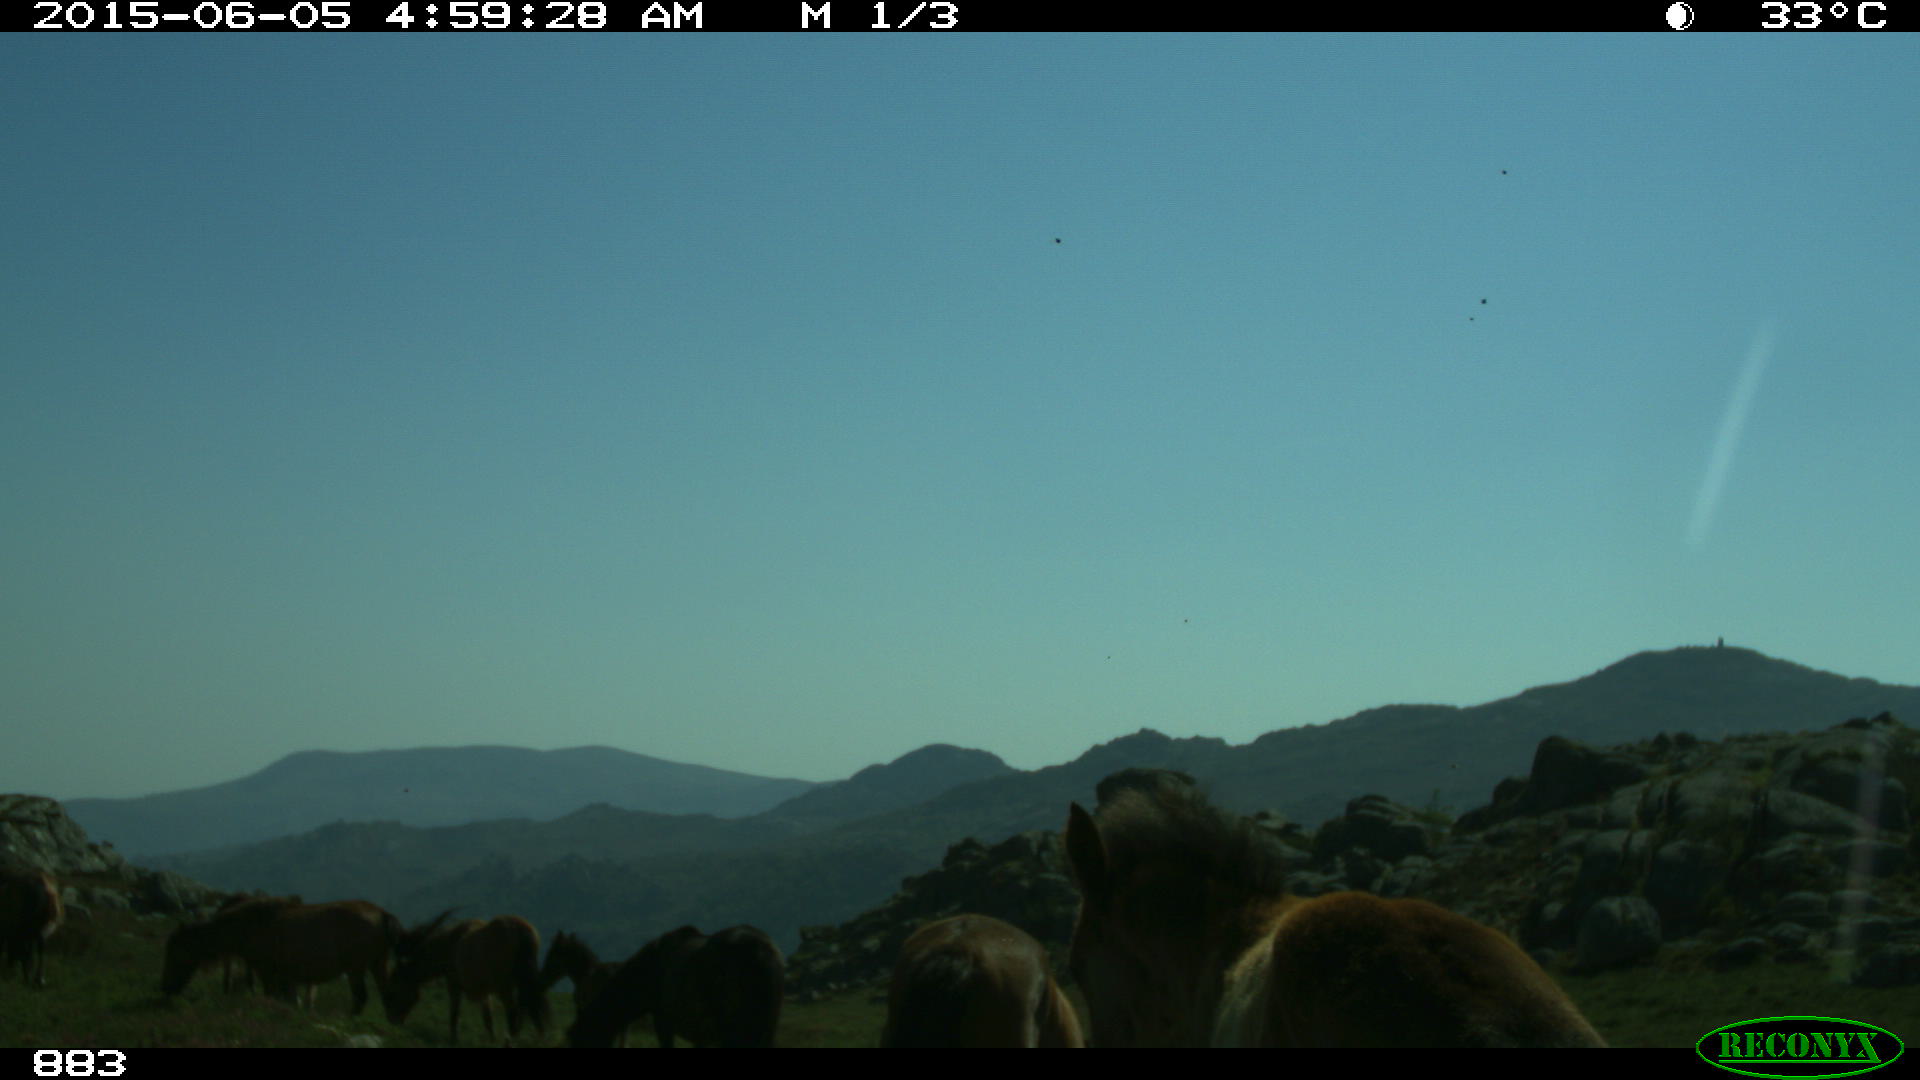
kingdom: Animalia
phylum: Chordata
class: Mammalia
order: Perissodactyla
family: Equidae
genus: Equus
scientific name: Equus caballus
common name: Horse
